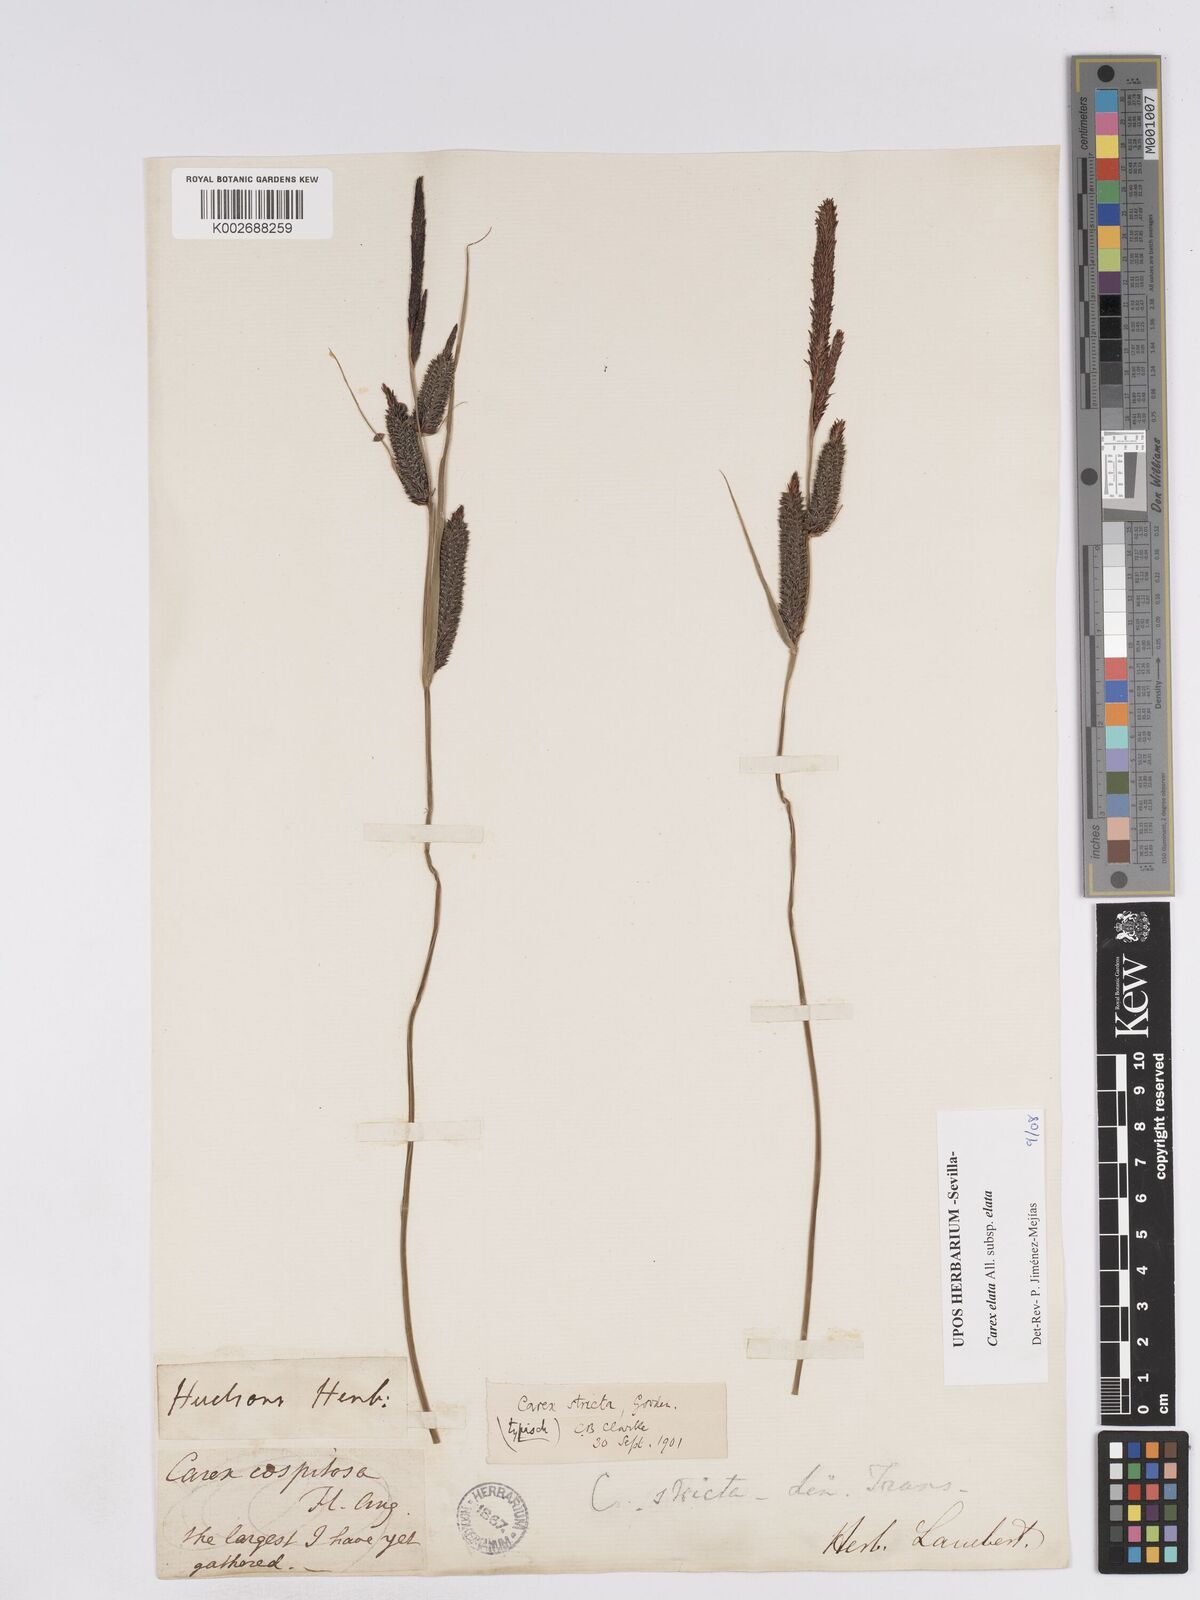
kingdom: Plantae
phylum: Tracheophyta
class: Liliopsida
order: Poales
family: Cyperaceae
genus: Carex
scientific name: Carex elata
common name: Tufted sedge
